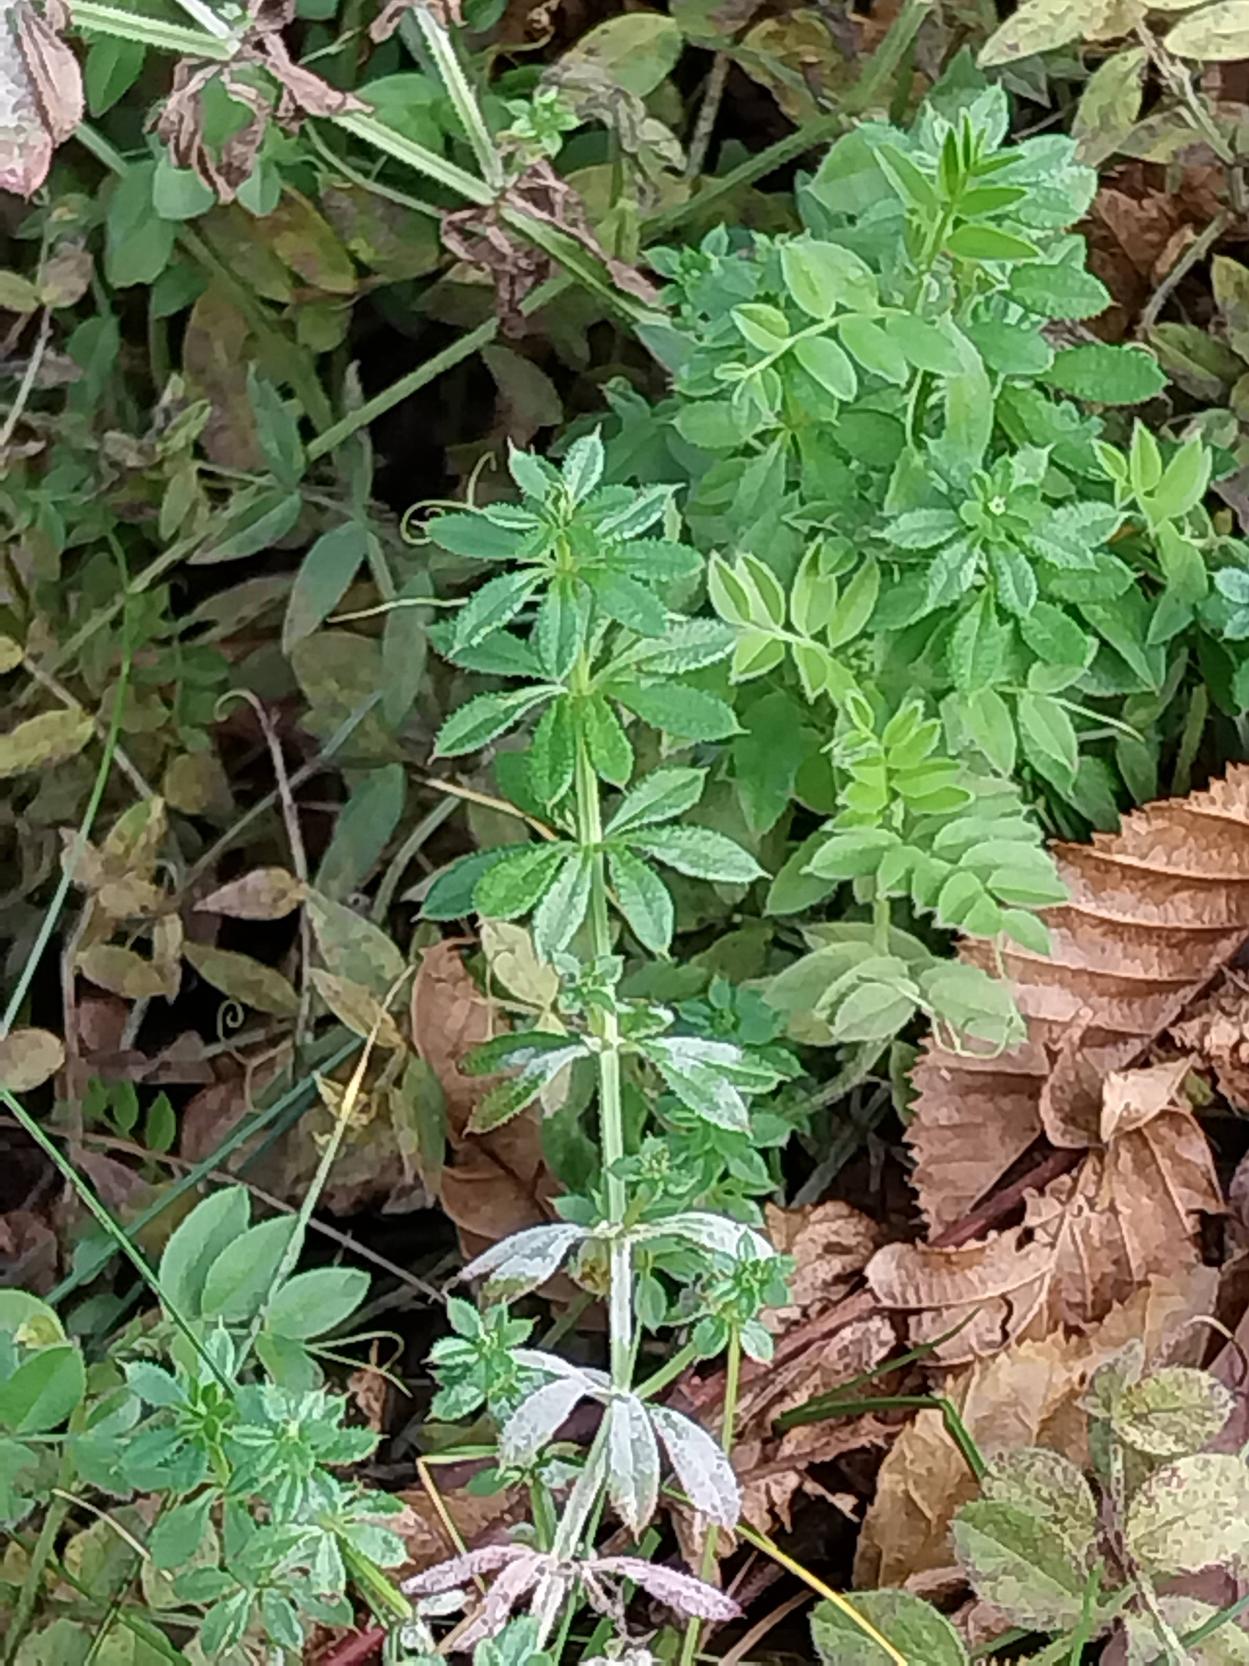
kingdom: Plantae
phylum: Tracheophyta
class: Magnoliopsida
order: Gentianales
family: Rubiaceae
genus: Galium
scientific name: Galium aparine
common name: Burre-snerre
